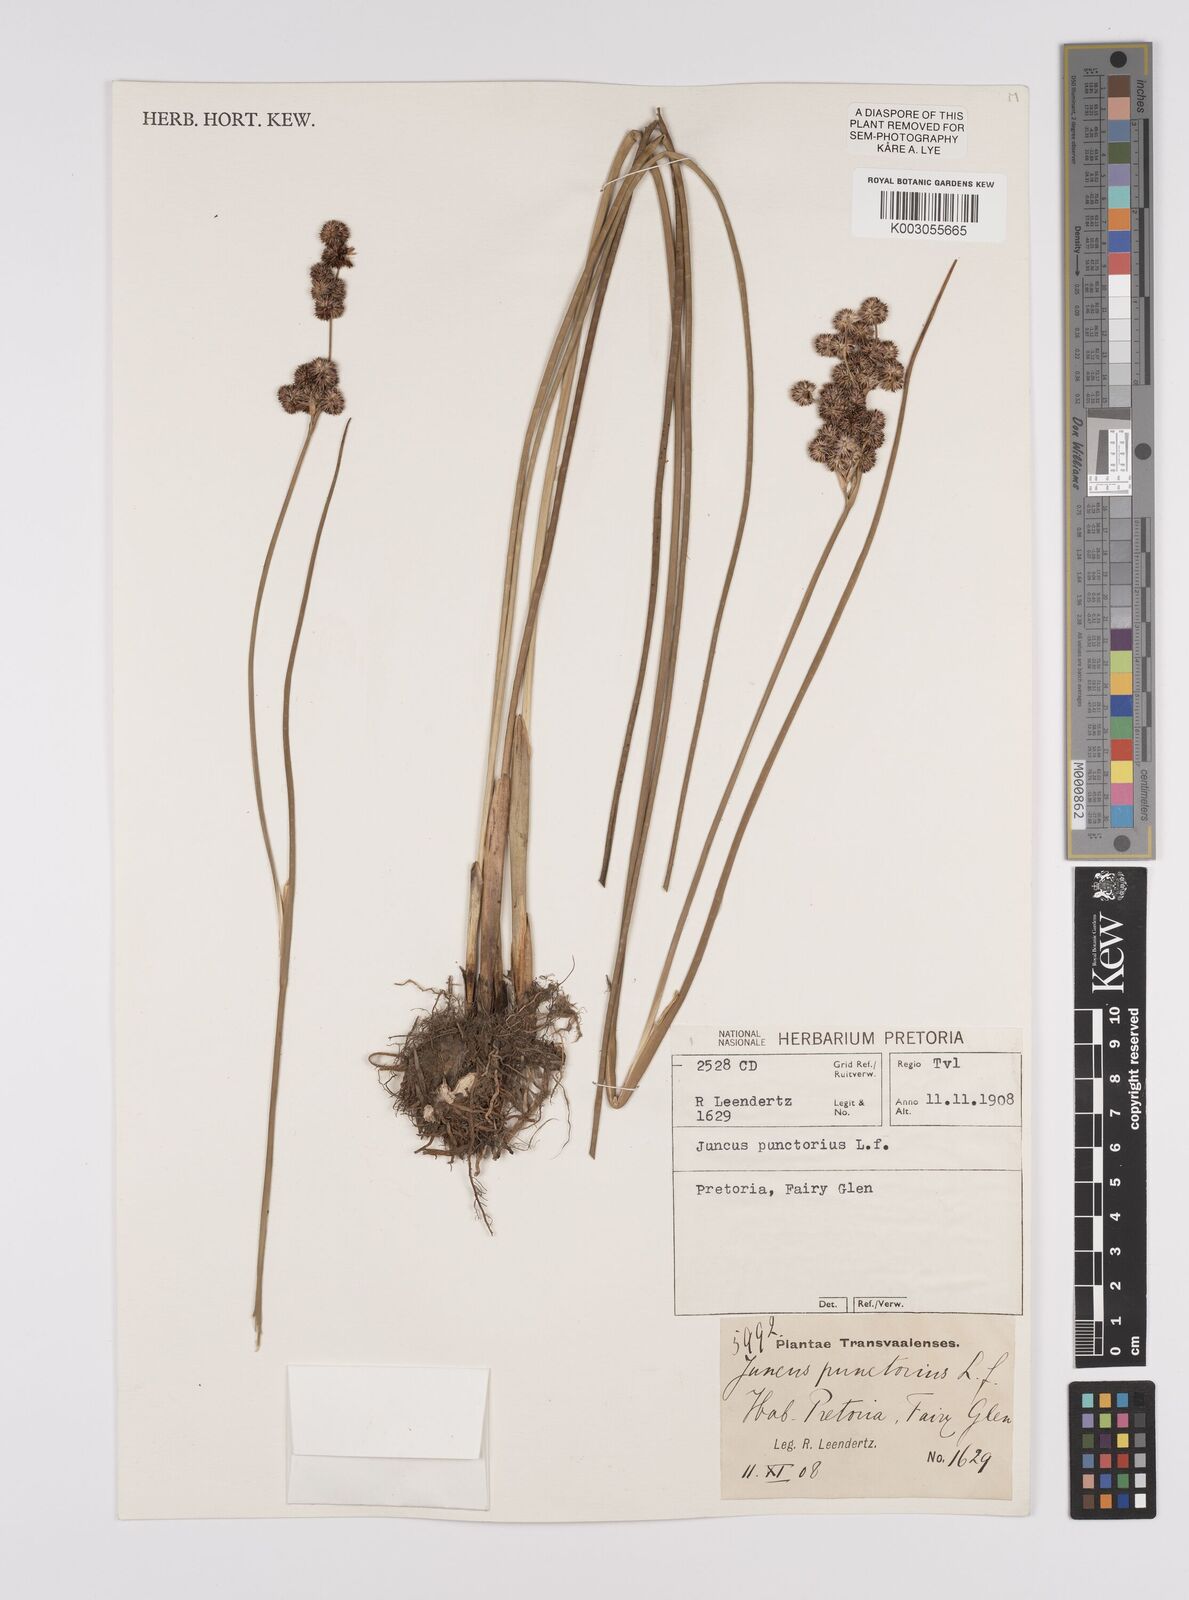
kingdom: Plantae
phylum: Tracheophyta
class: Liliopsida
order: Poales
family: Juncaceae
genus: Juncus
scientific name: Juncus punctorius
